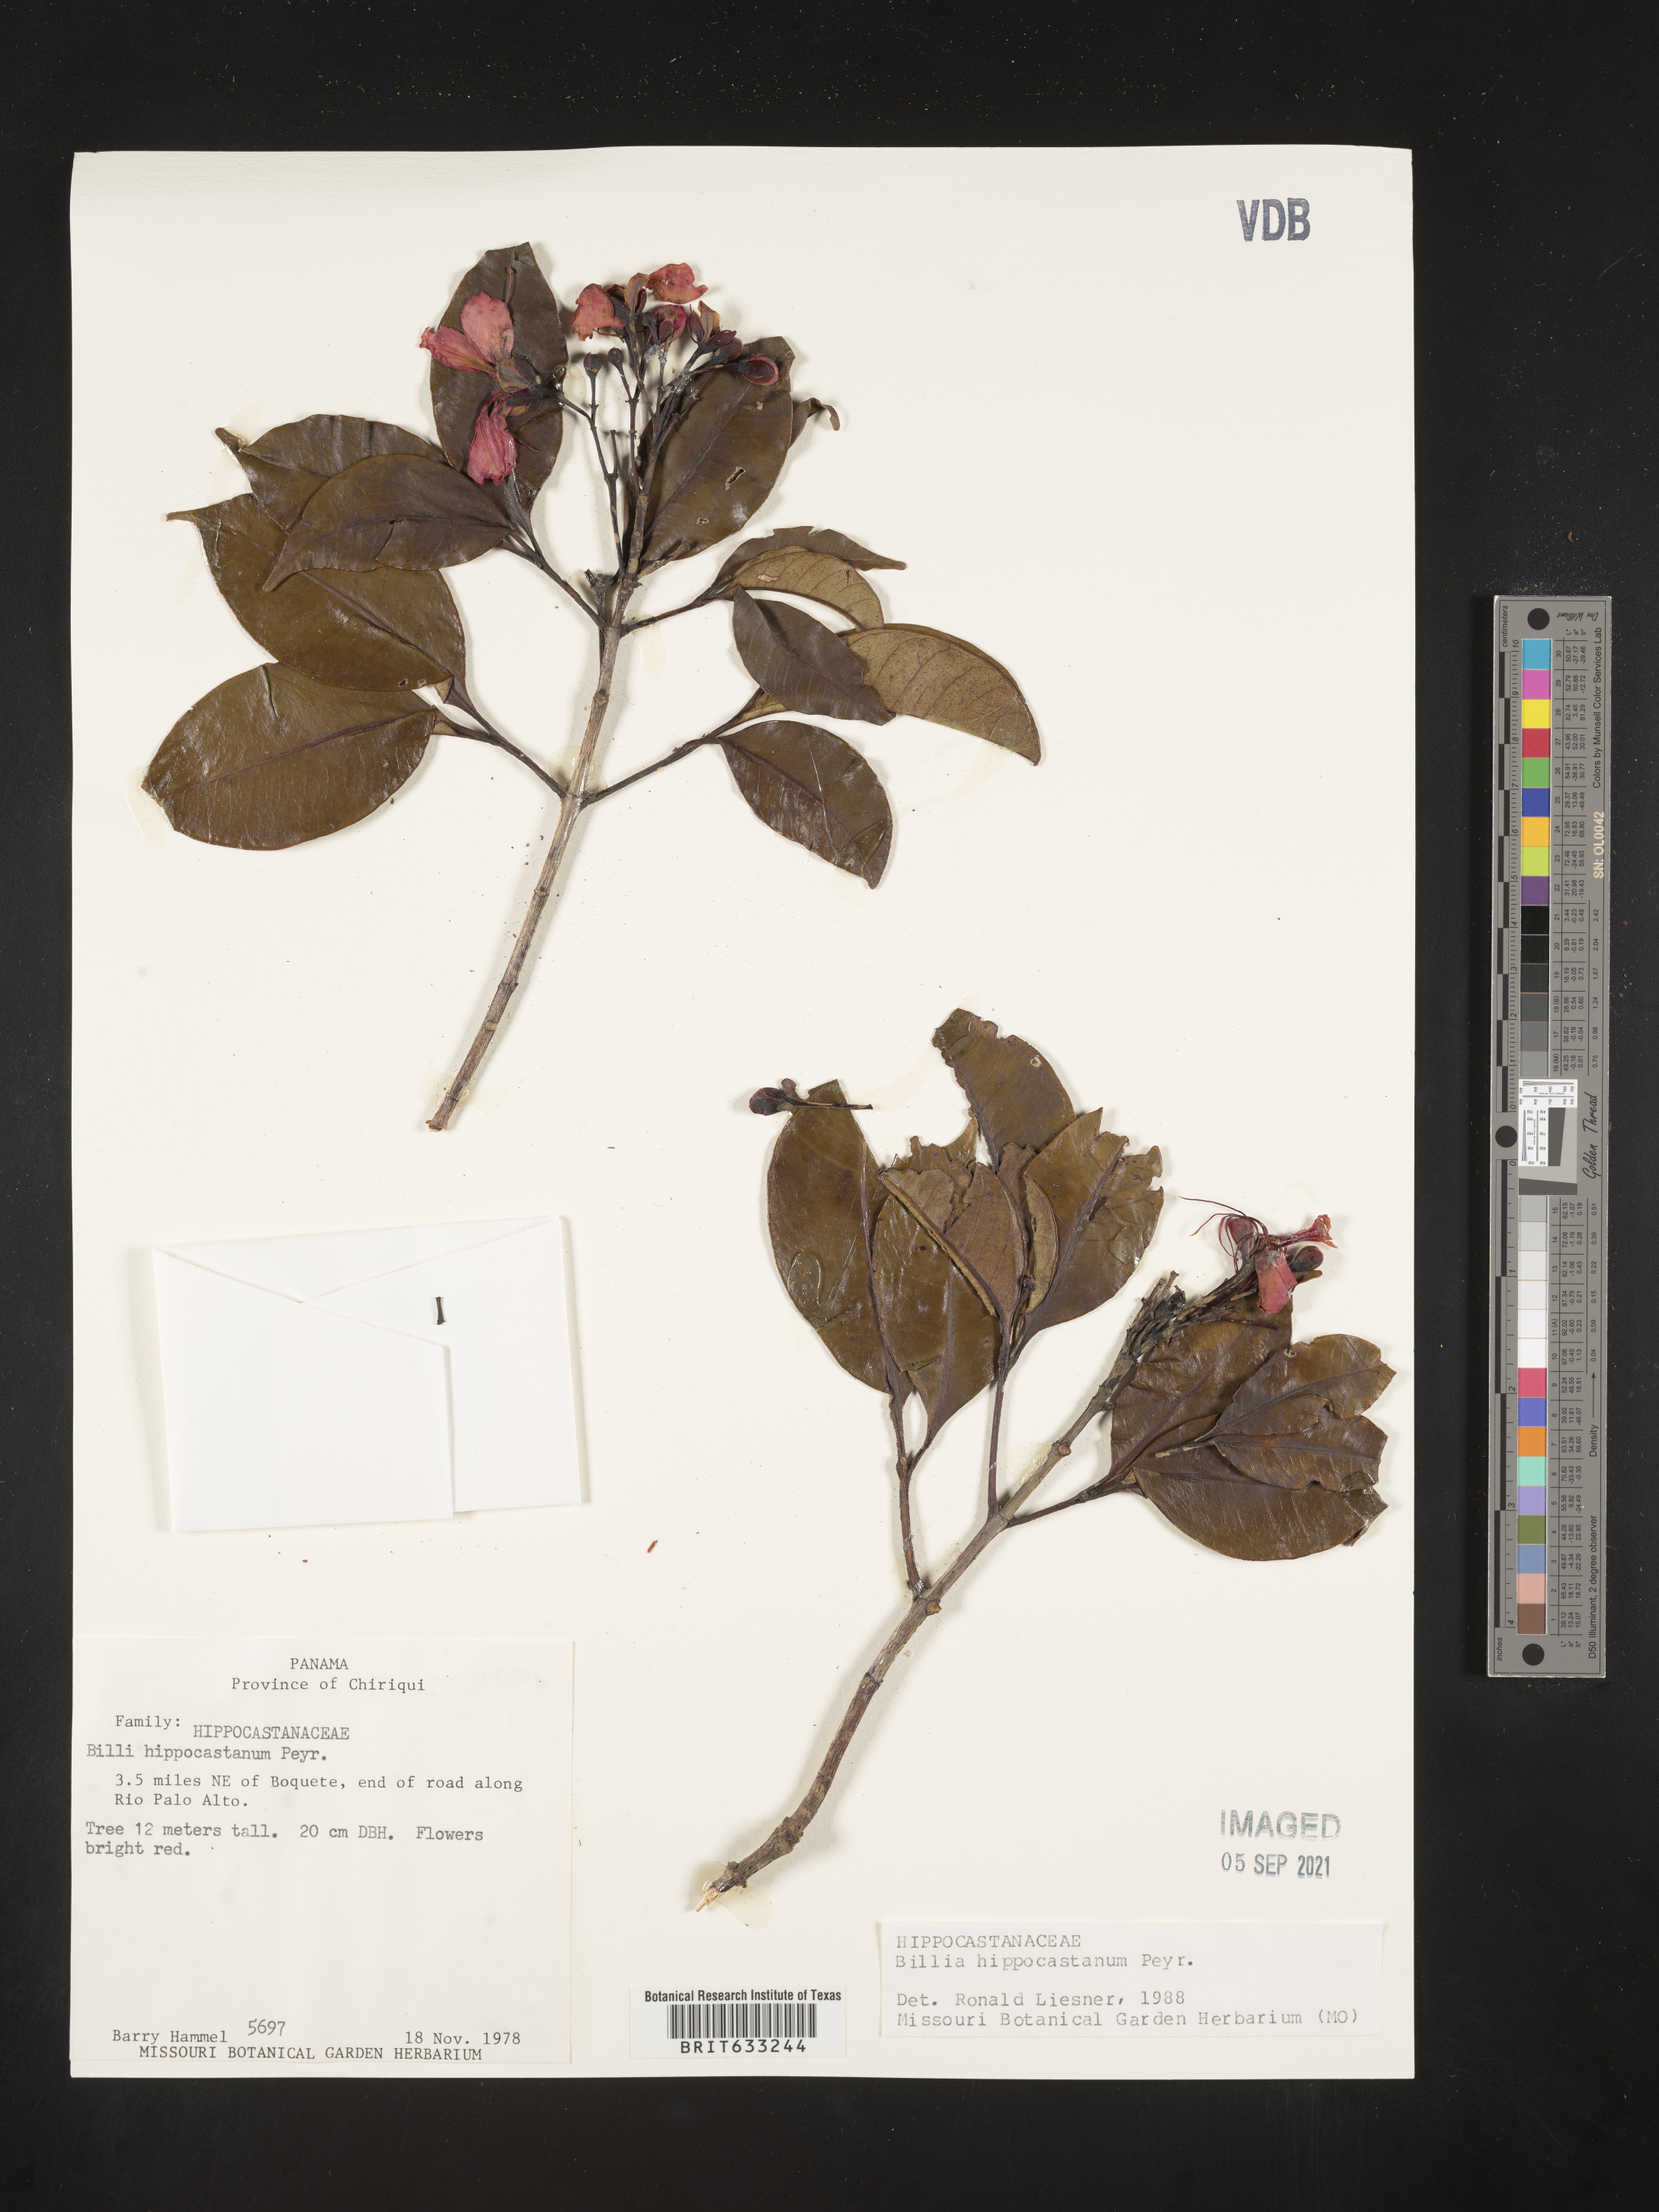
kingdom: Plantae
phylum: Tracheophyta
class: Magnoliopsida
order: Sapindales
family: Sapindaceae
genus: Billia
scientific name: Billia
